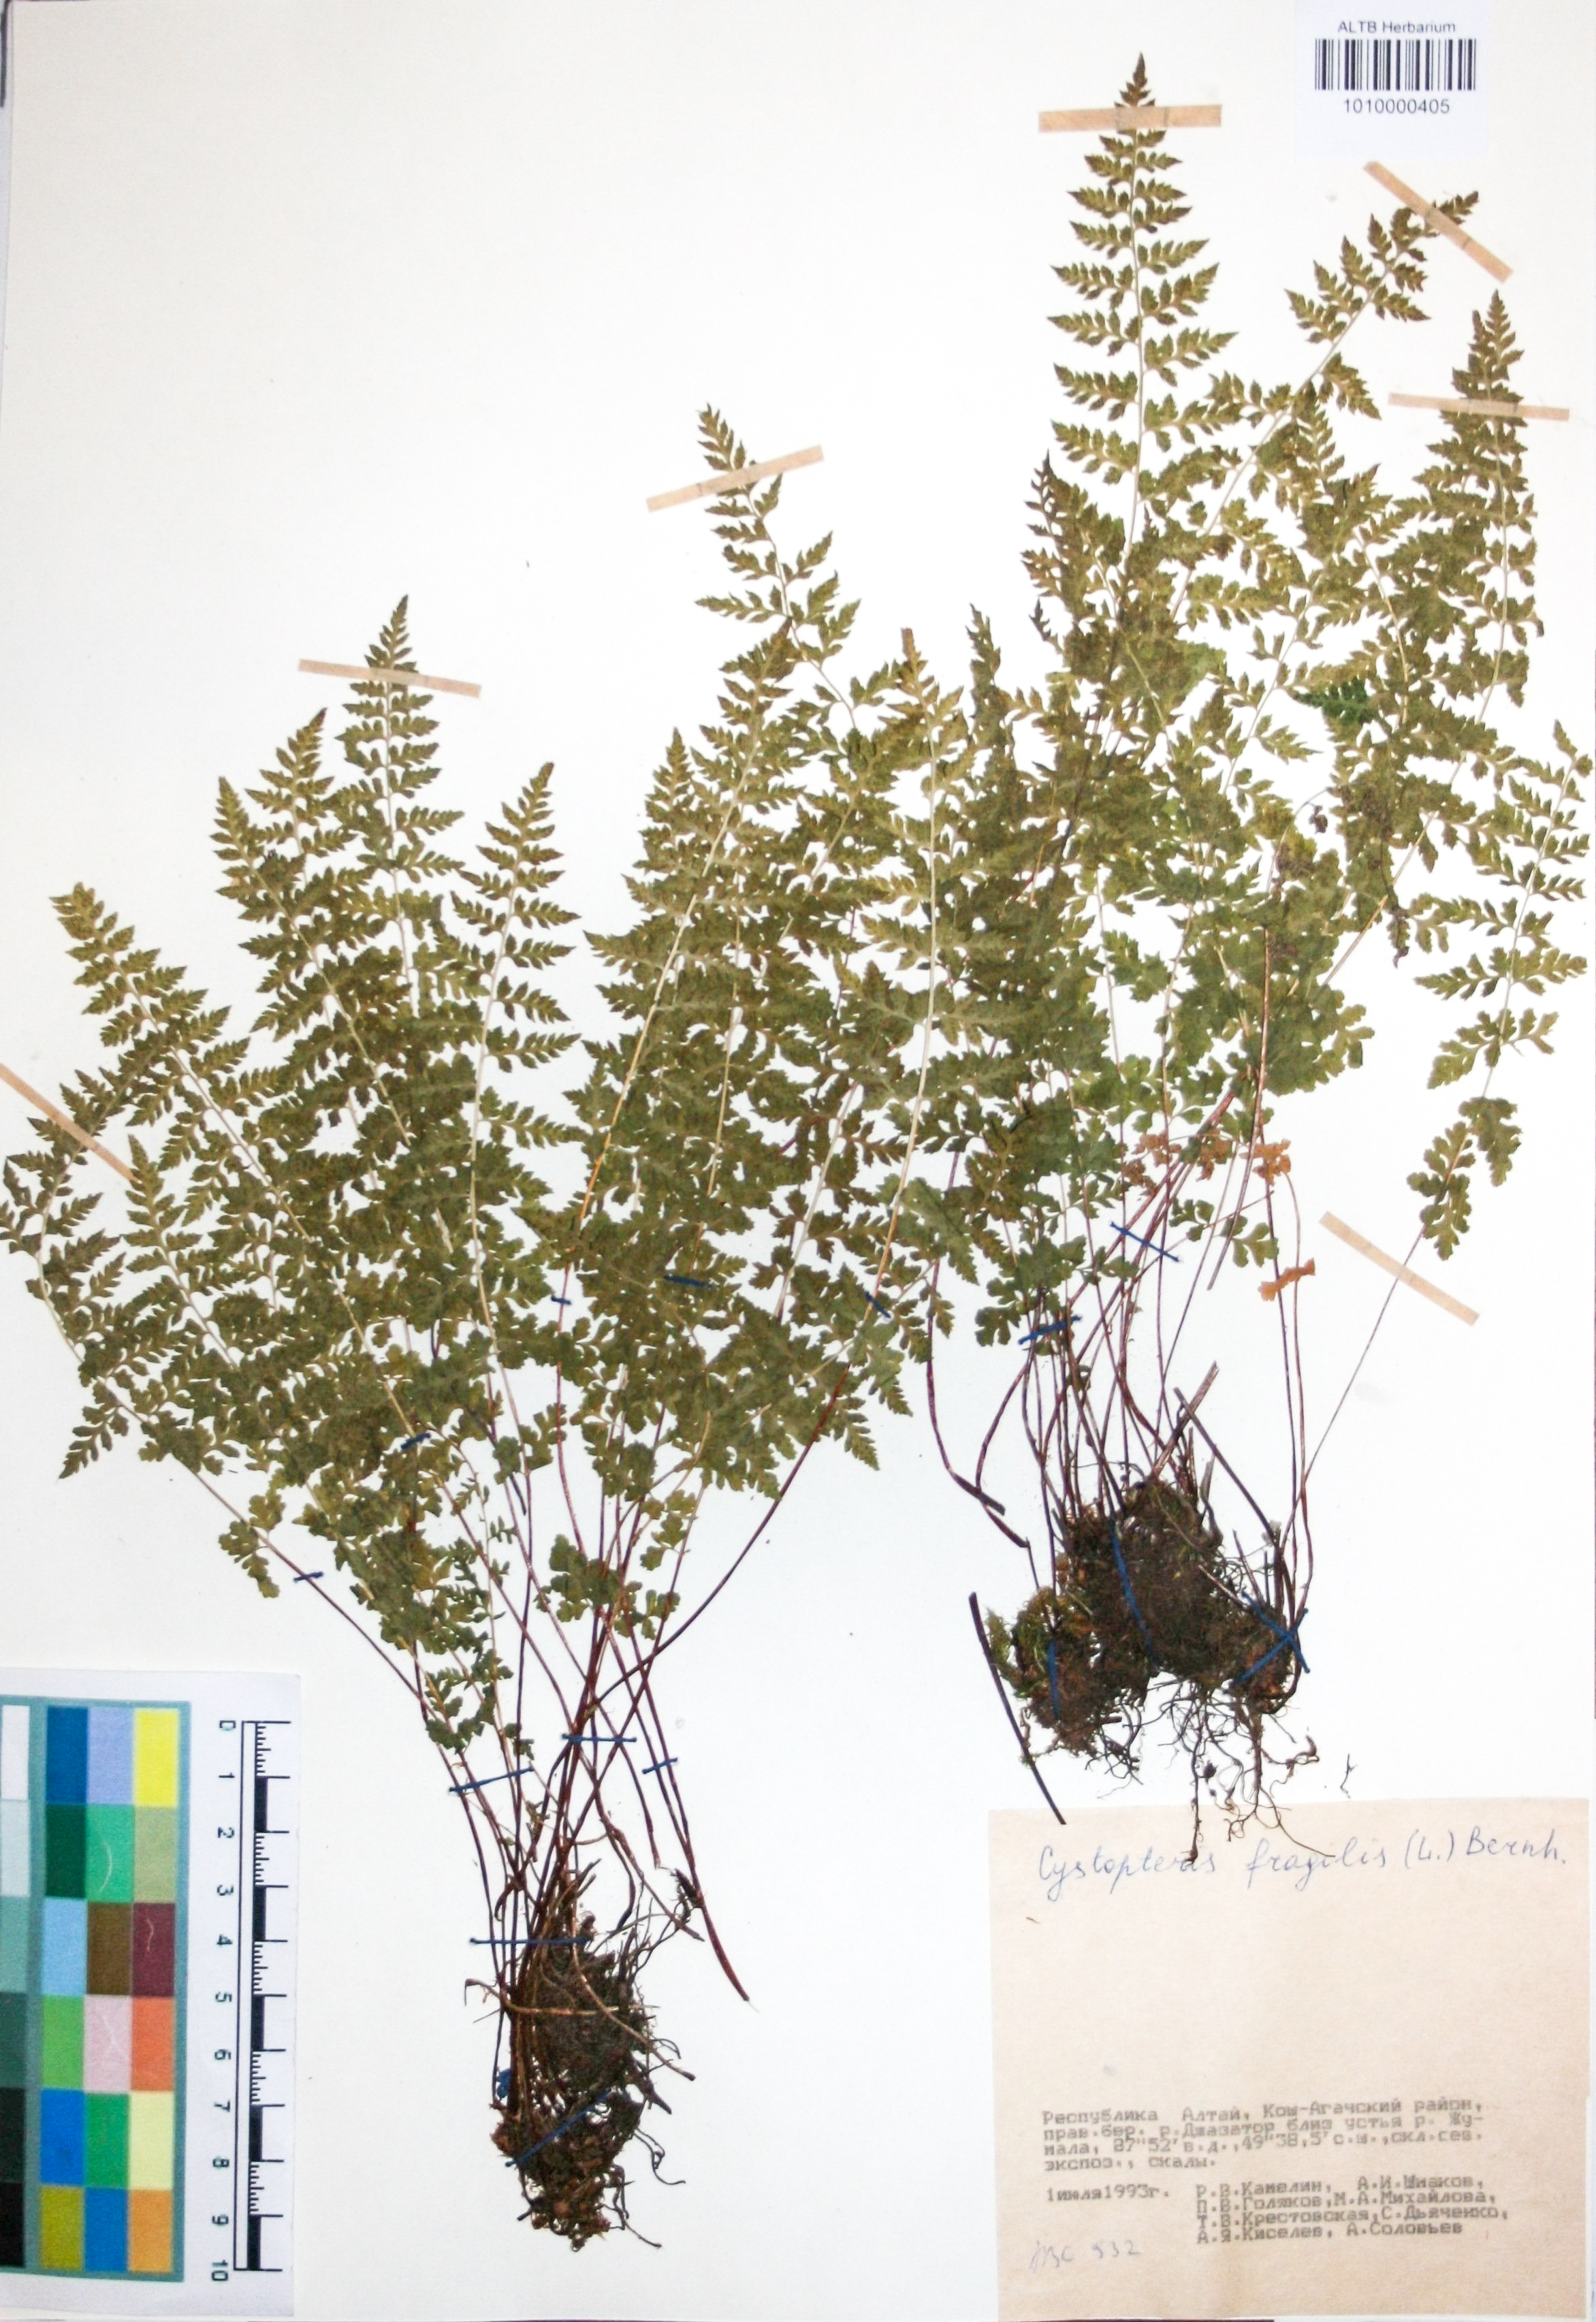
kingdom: Plantae
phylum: Tracheophyta
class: Polypodiopsida
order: Polypodiales
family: Cystopteridaceae
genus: Cystopteris
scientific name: Cystopteris fragilis
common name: Brittle bladder fern
